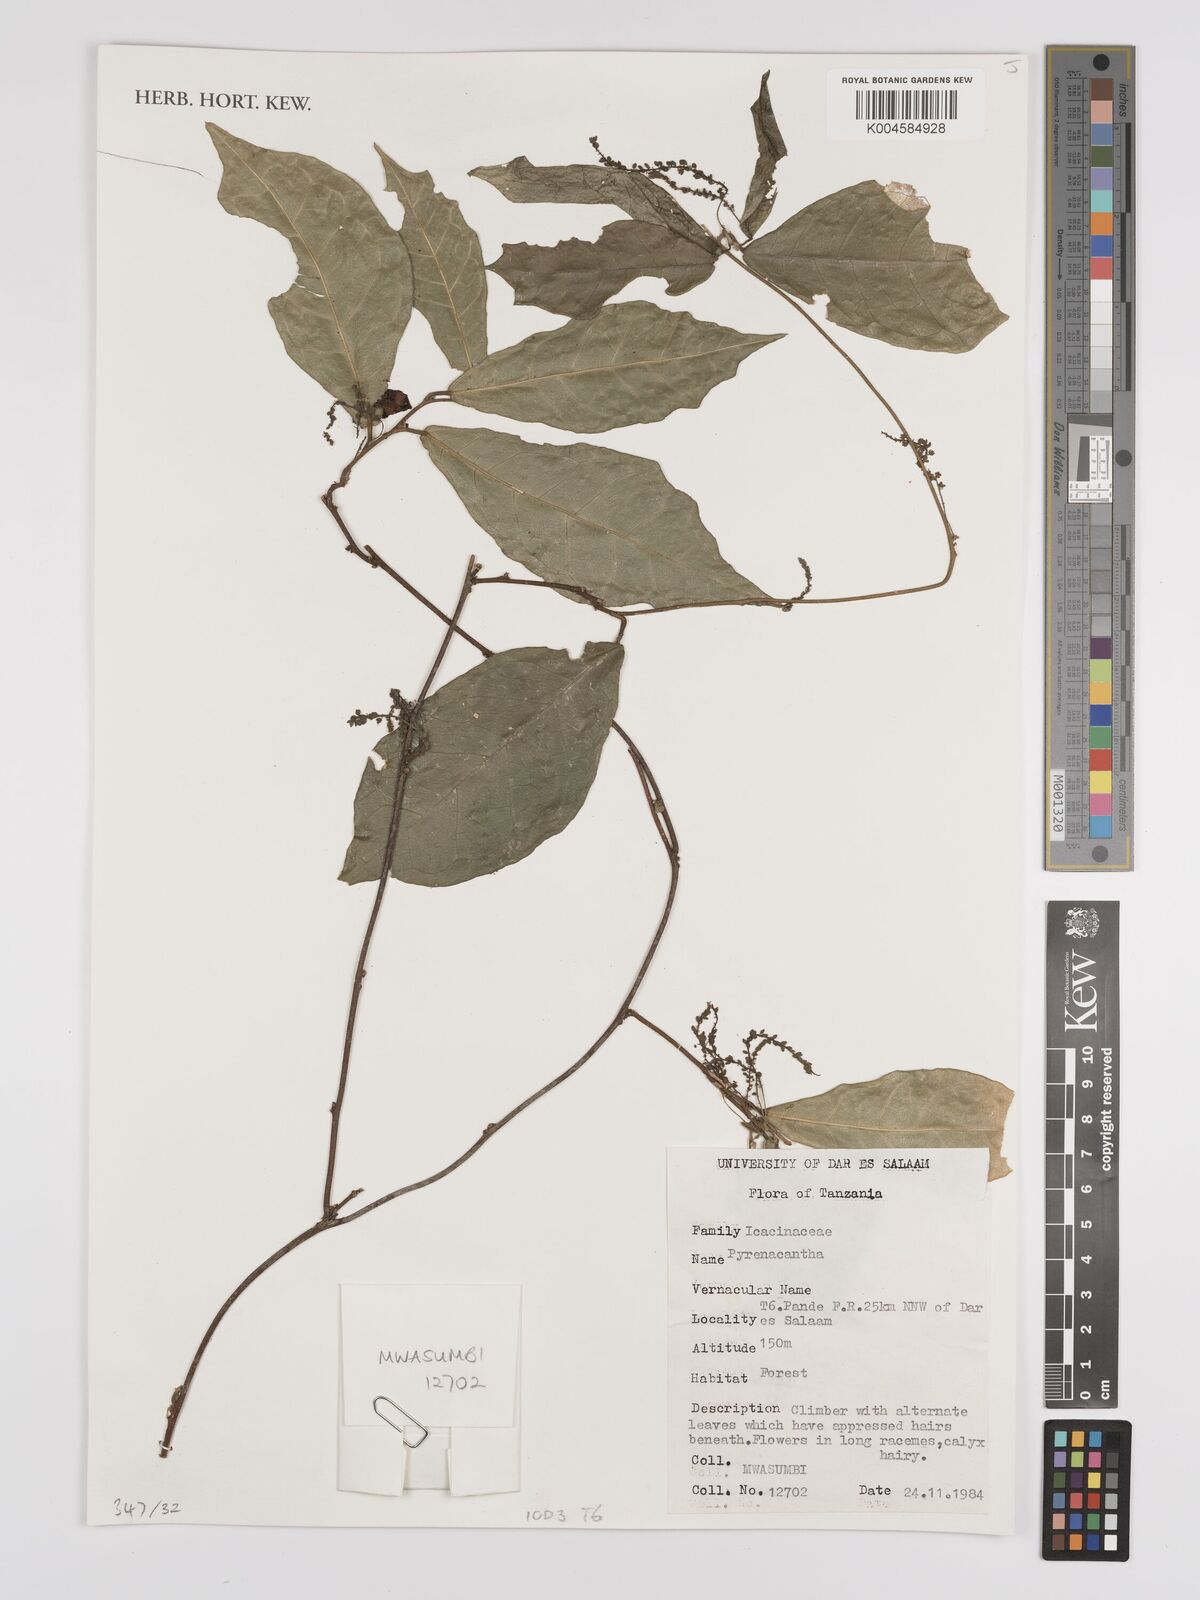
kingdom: Plantae
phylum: Tracheophyta
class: Magnoliopsida
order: Icacinales
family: Icacinaceae
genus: Pyrenacantha
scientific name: Pyrenacantha
